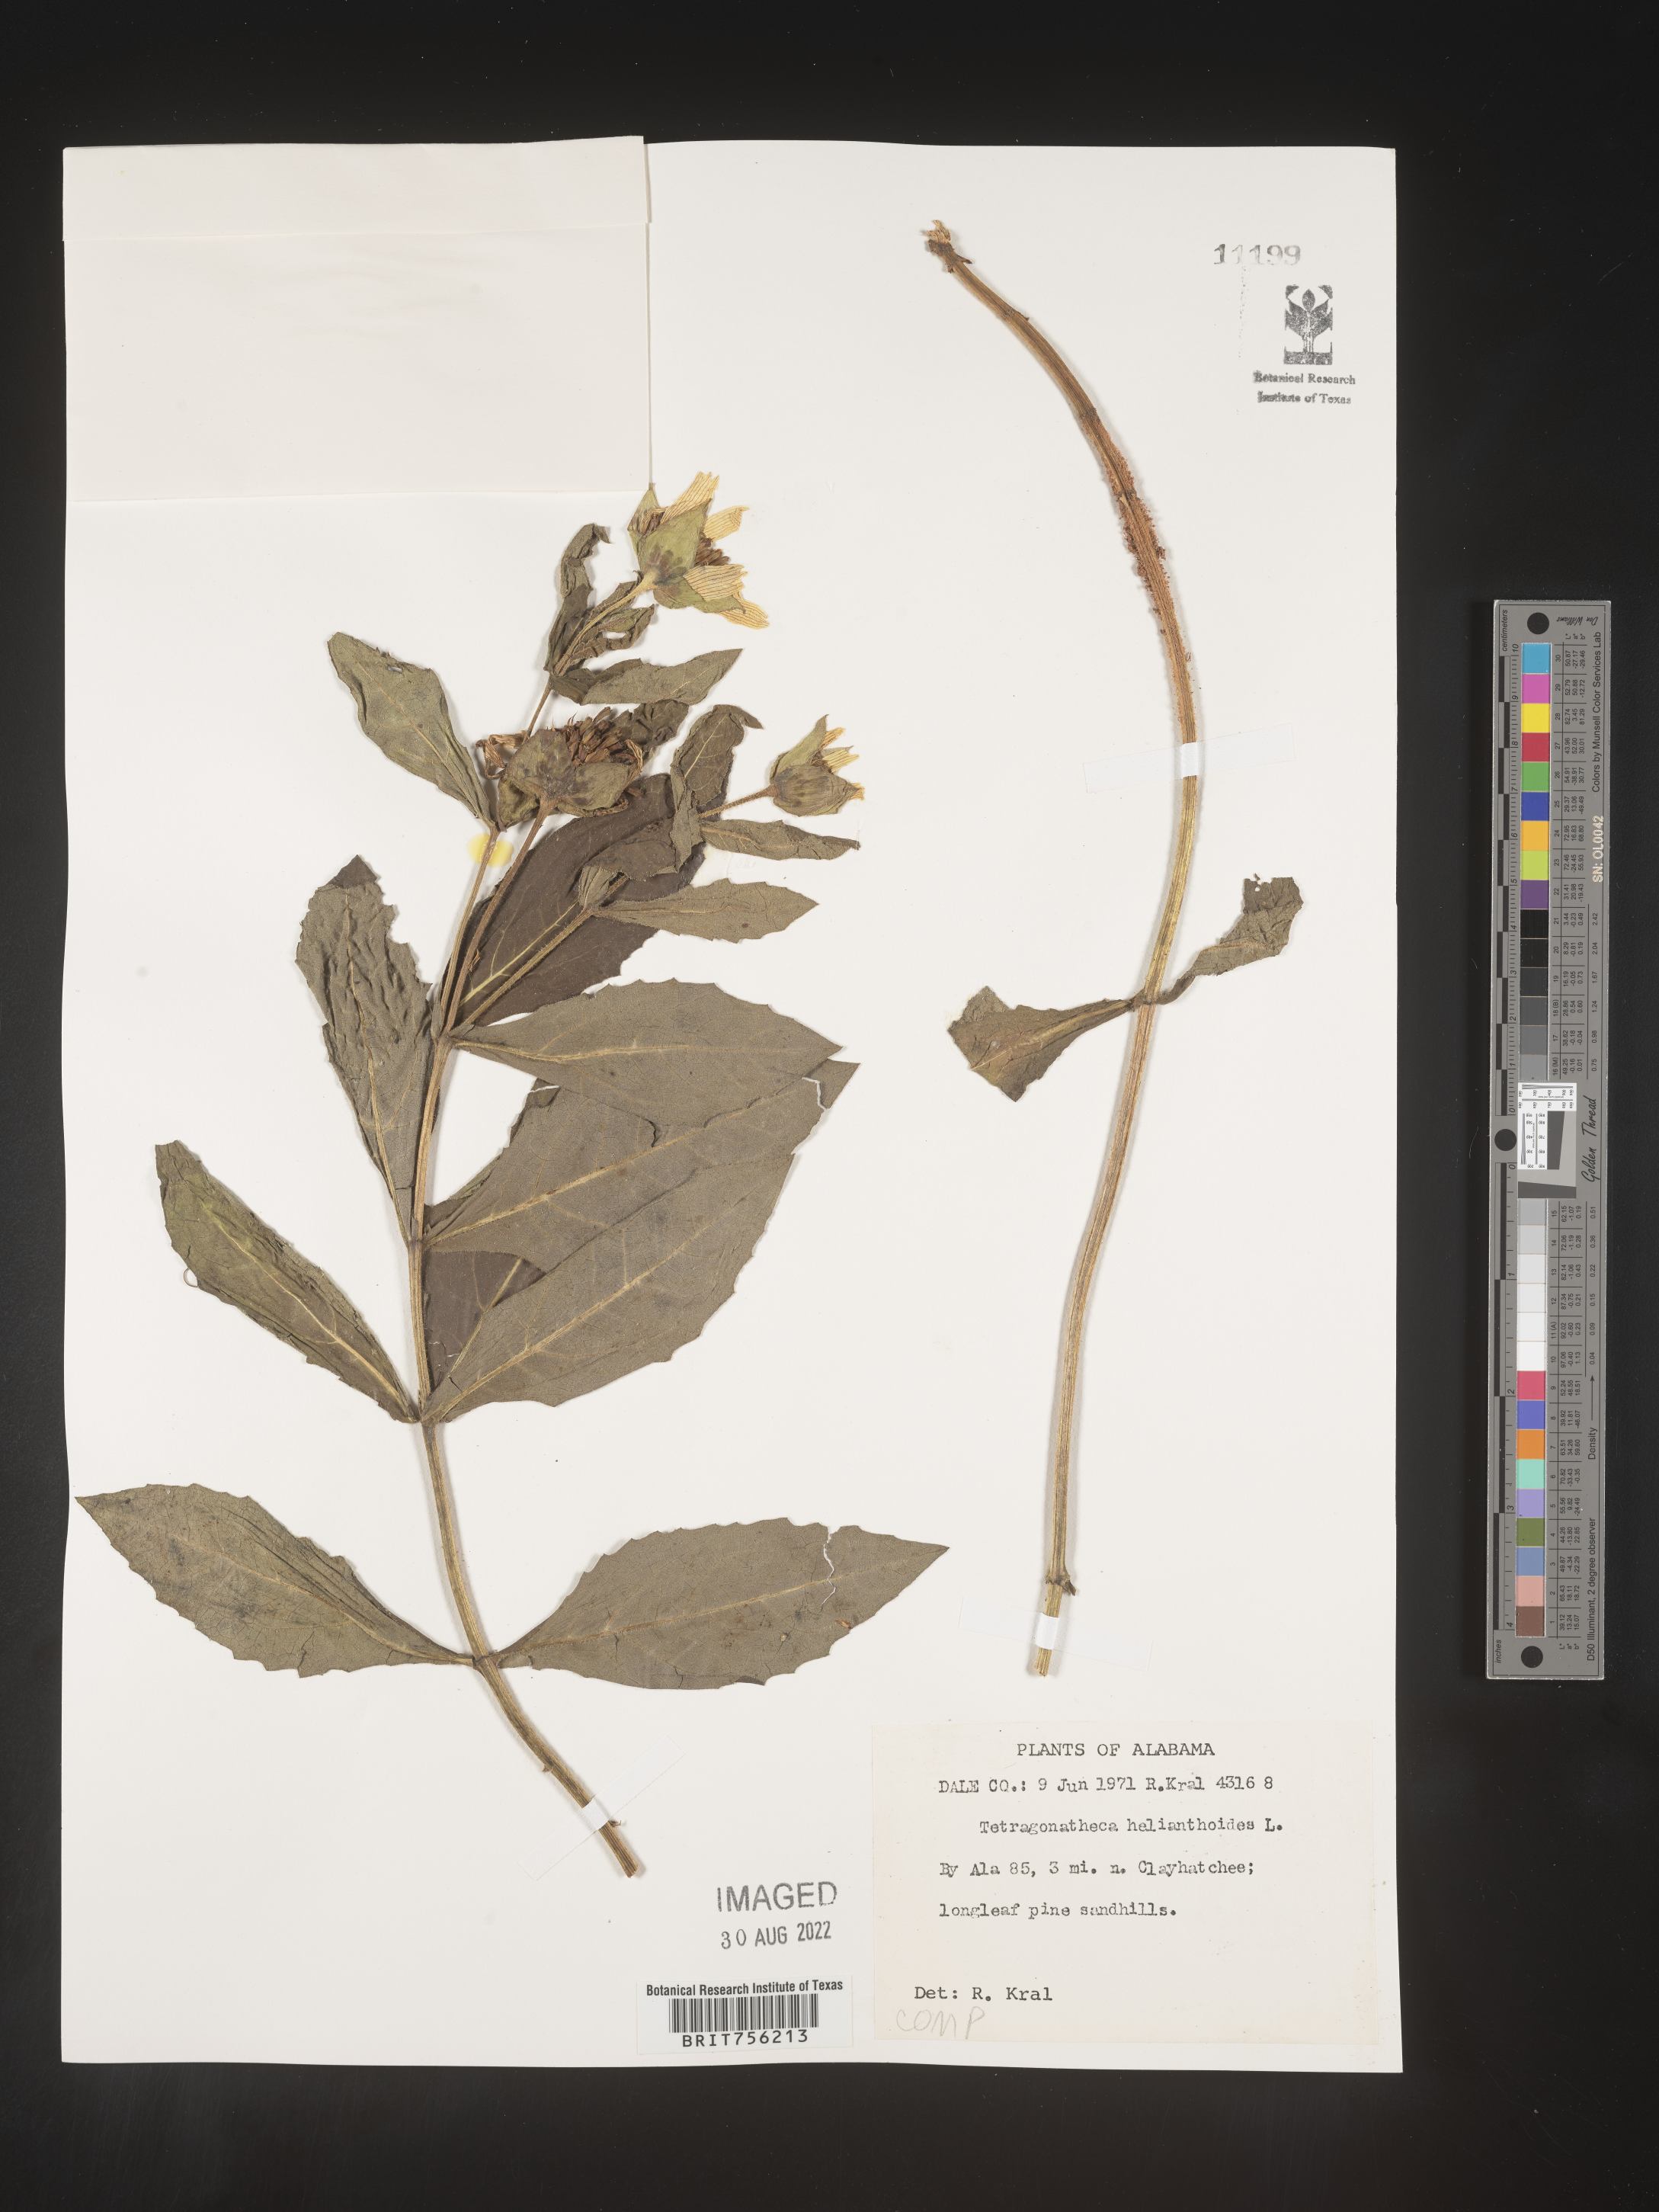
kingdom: Plantae
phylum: Tracheophyta
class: Magnoliopsida
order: Asterales
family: Asteraceae
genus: Tetragonotheca
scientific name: Tetragonotheca
